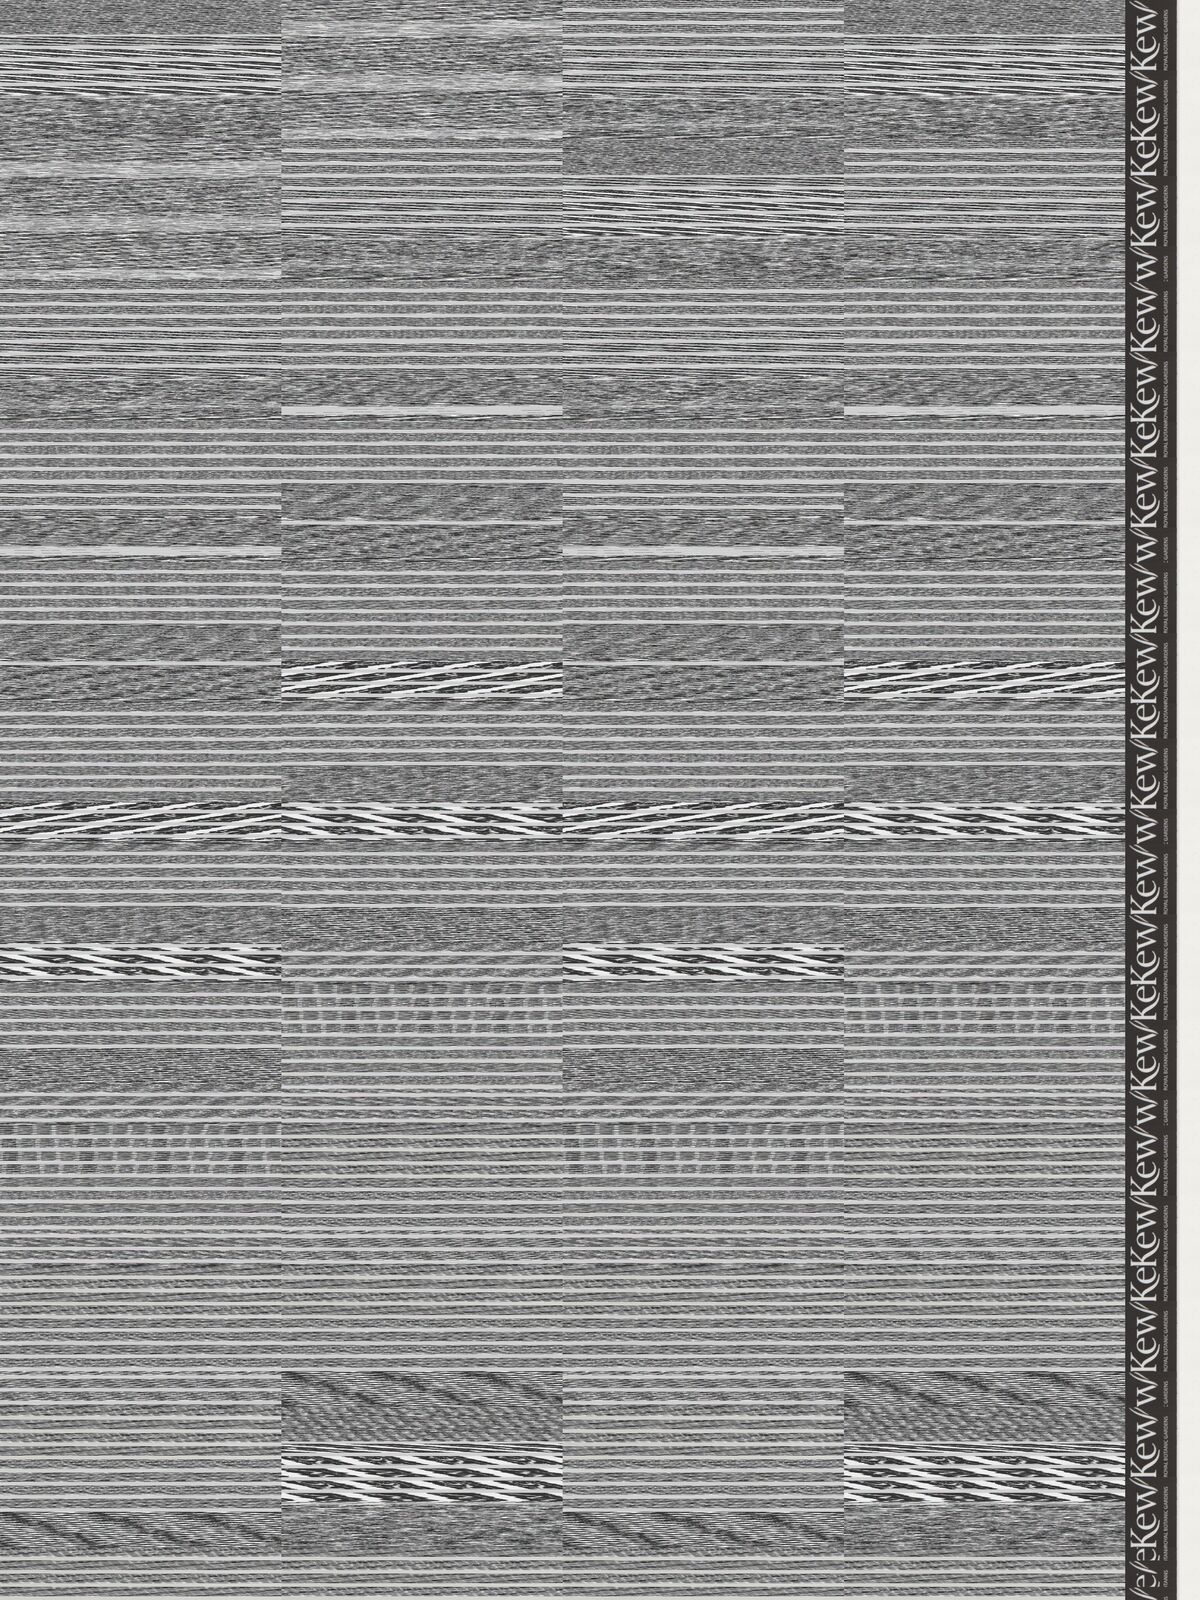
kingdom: Plantae
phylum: Tracheophyta
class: Magnoliopsida
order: Asterales
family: Asteraceae
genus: Acourtia
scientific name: Acourtia turbinata
